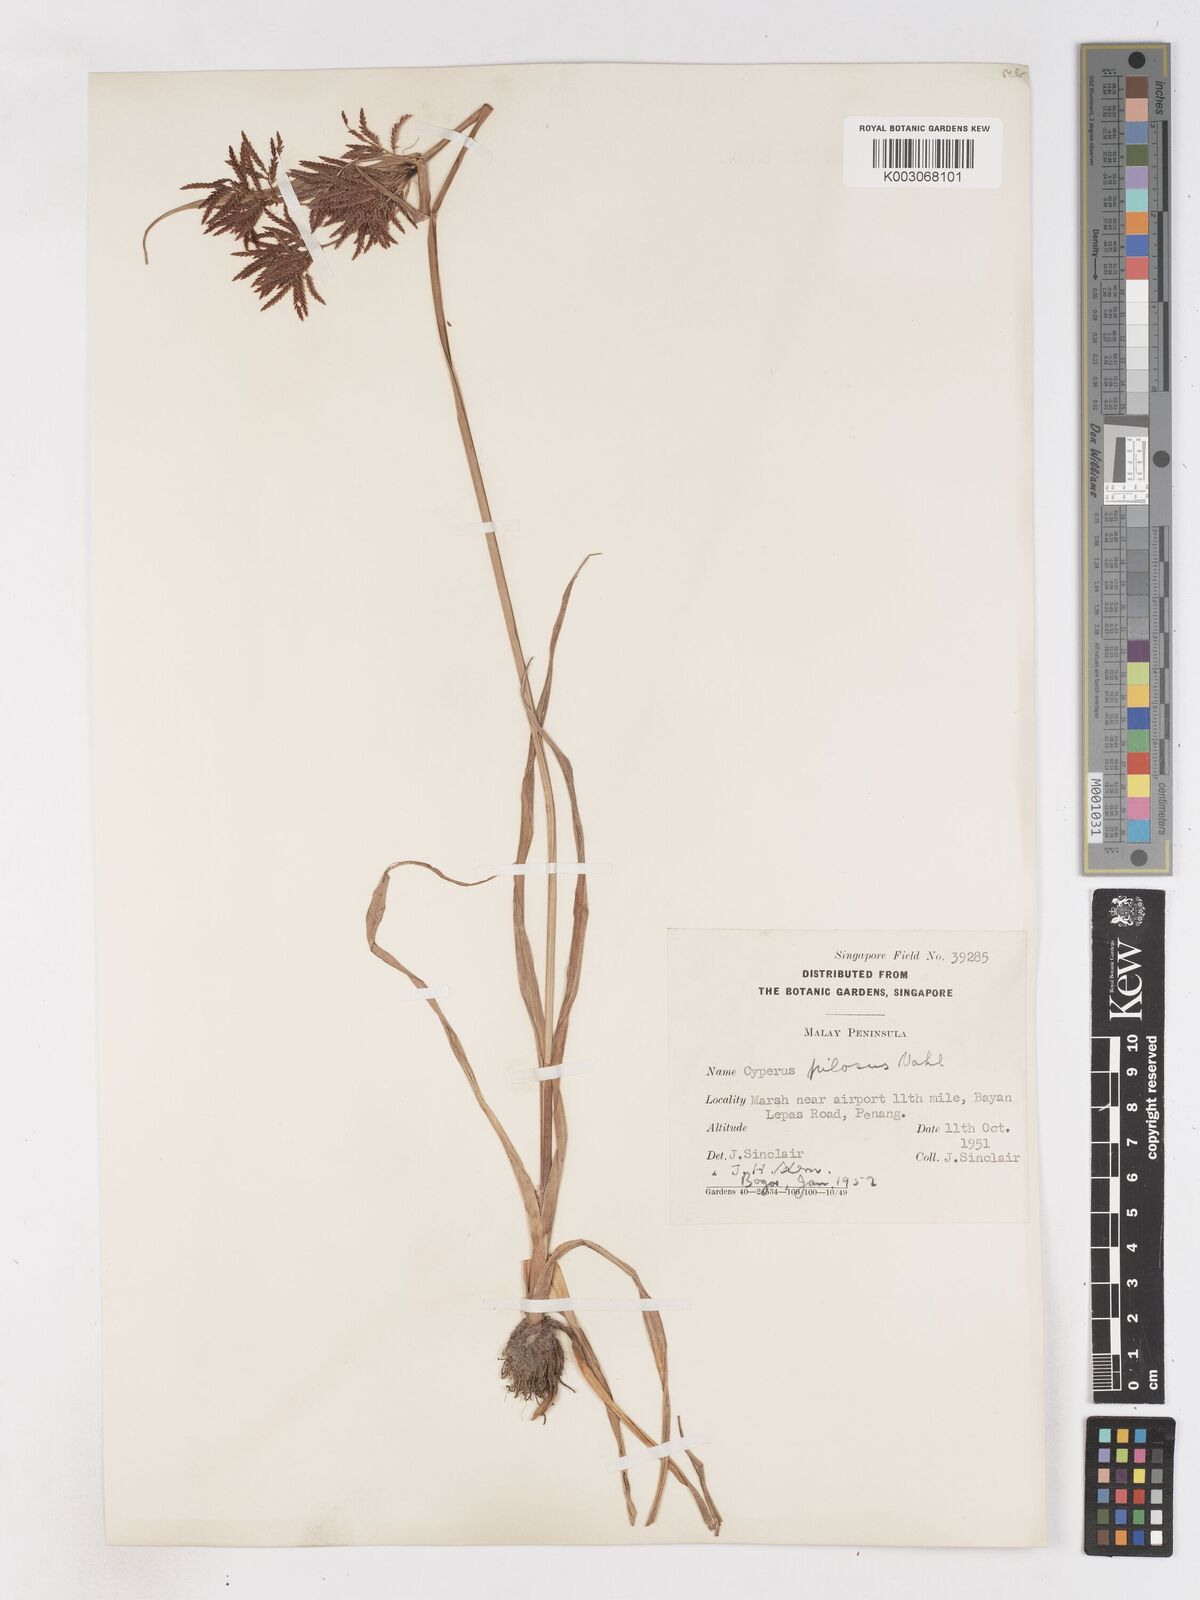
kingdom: Plantae
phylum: Tracheophyta
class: Liliopsida
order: Poales
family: Cyperaceae
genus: Cyperus
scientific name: Cyperus pilosus
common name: Fuzzy flatsedge
